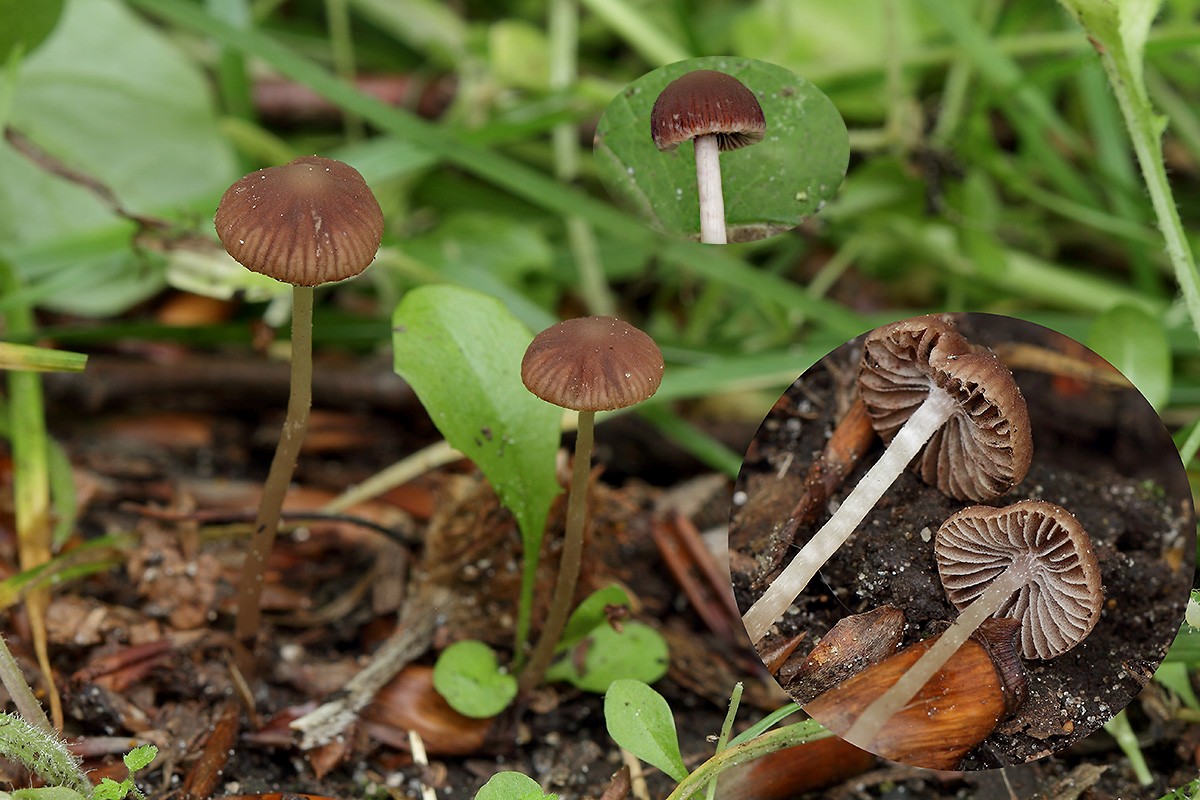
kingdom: Fungi
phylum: Basidiomycota
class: Agaricomycetes
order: Agaricales
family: Psathyrellaceae
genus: Psathyrella
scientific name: Psathyrella bipellis
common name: vinrød mørkhat
